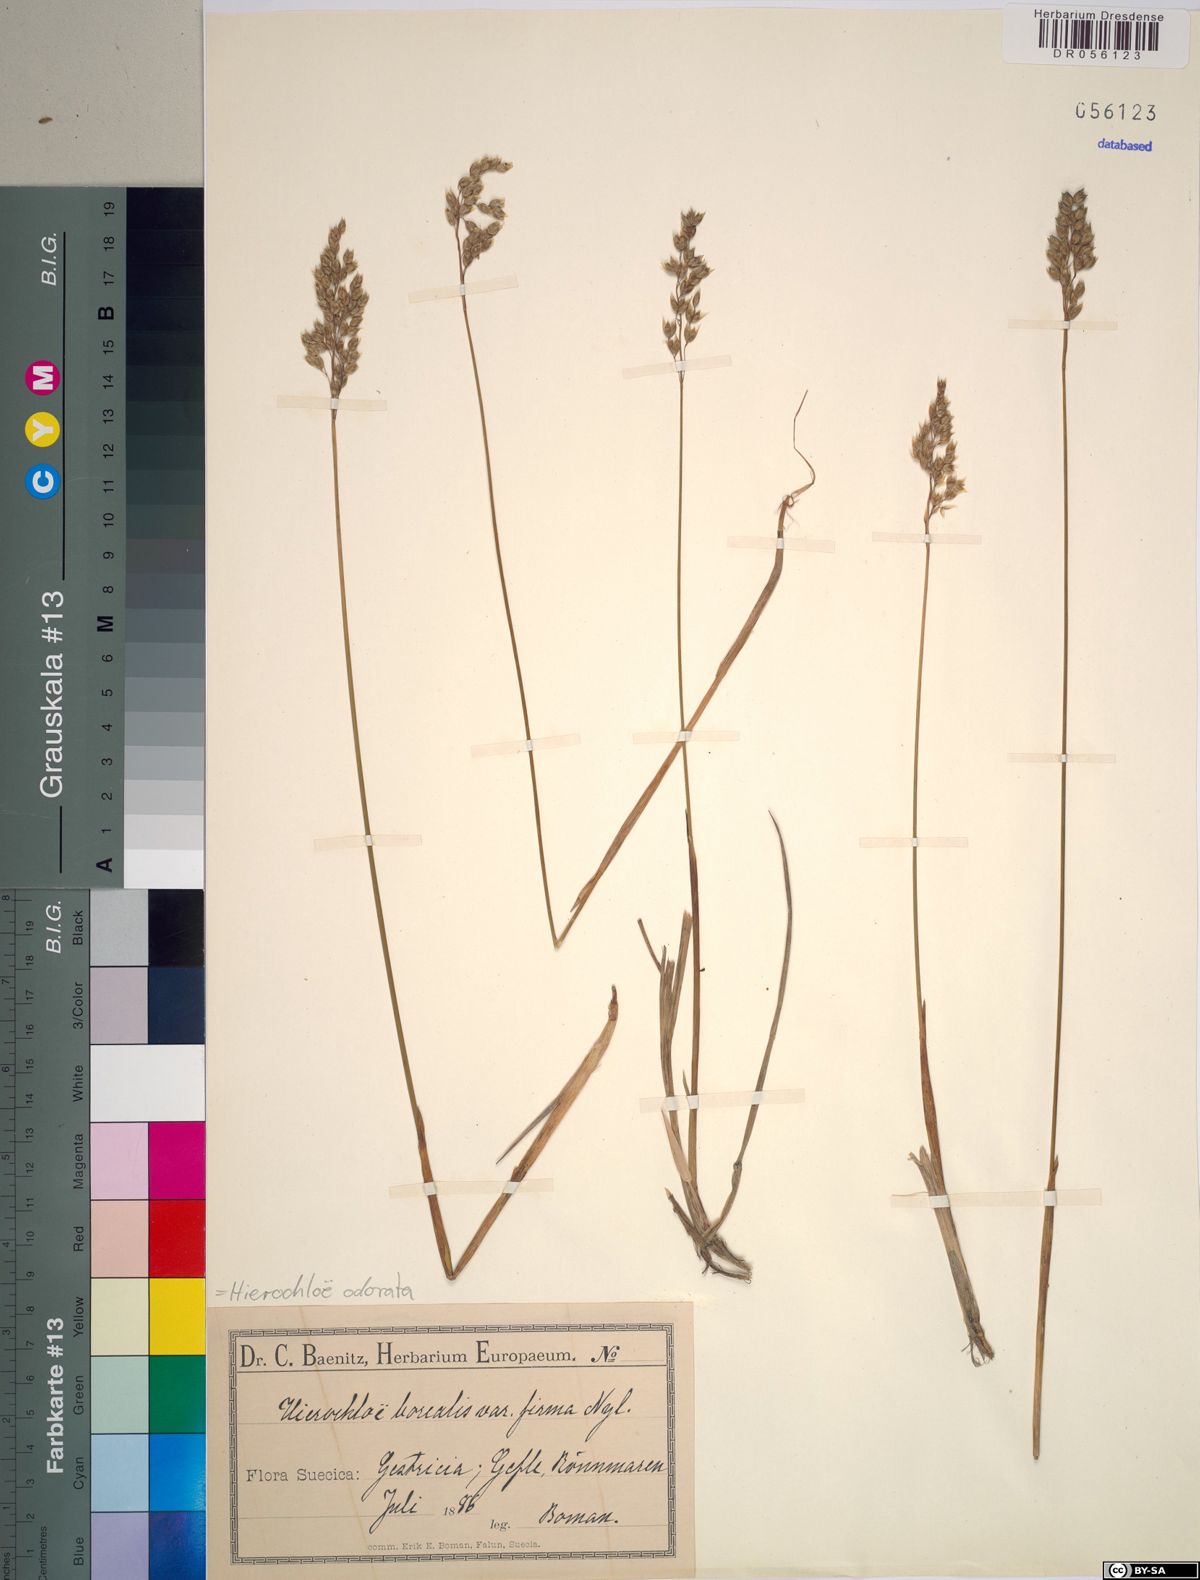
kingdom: Plantae
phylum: Tracheophyta
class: Liliopsida
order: Poales
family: Poaceae
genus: Anthoxanthum
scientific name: Anthoxanthum nitens
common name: Holy grass
